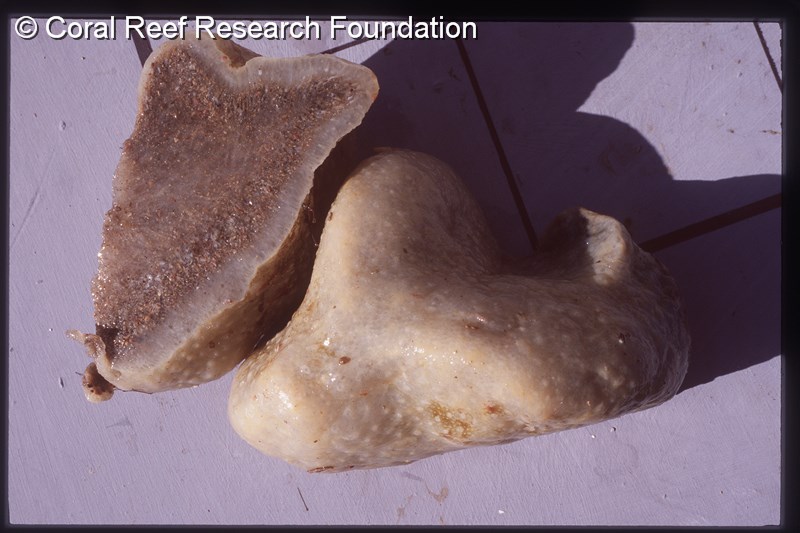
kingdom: Animalia
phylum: Chordata
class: Ascidiacea
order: Aplousobranchia
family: Polycitoridae
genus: Eudistoma
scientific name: Eudistoma
